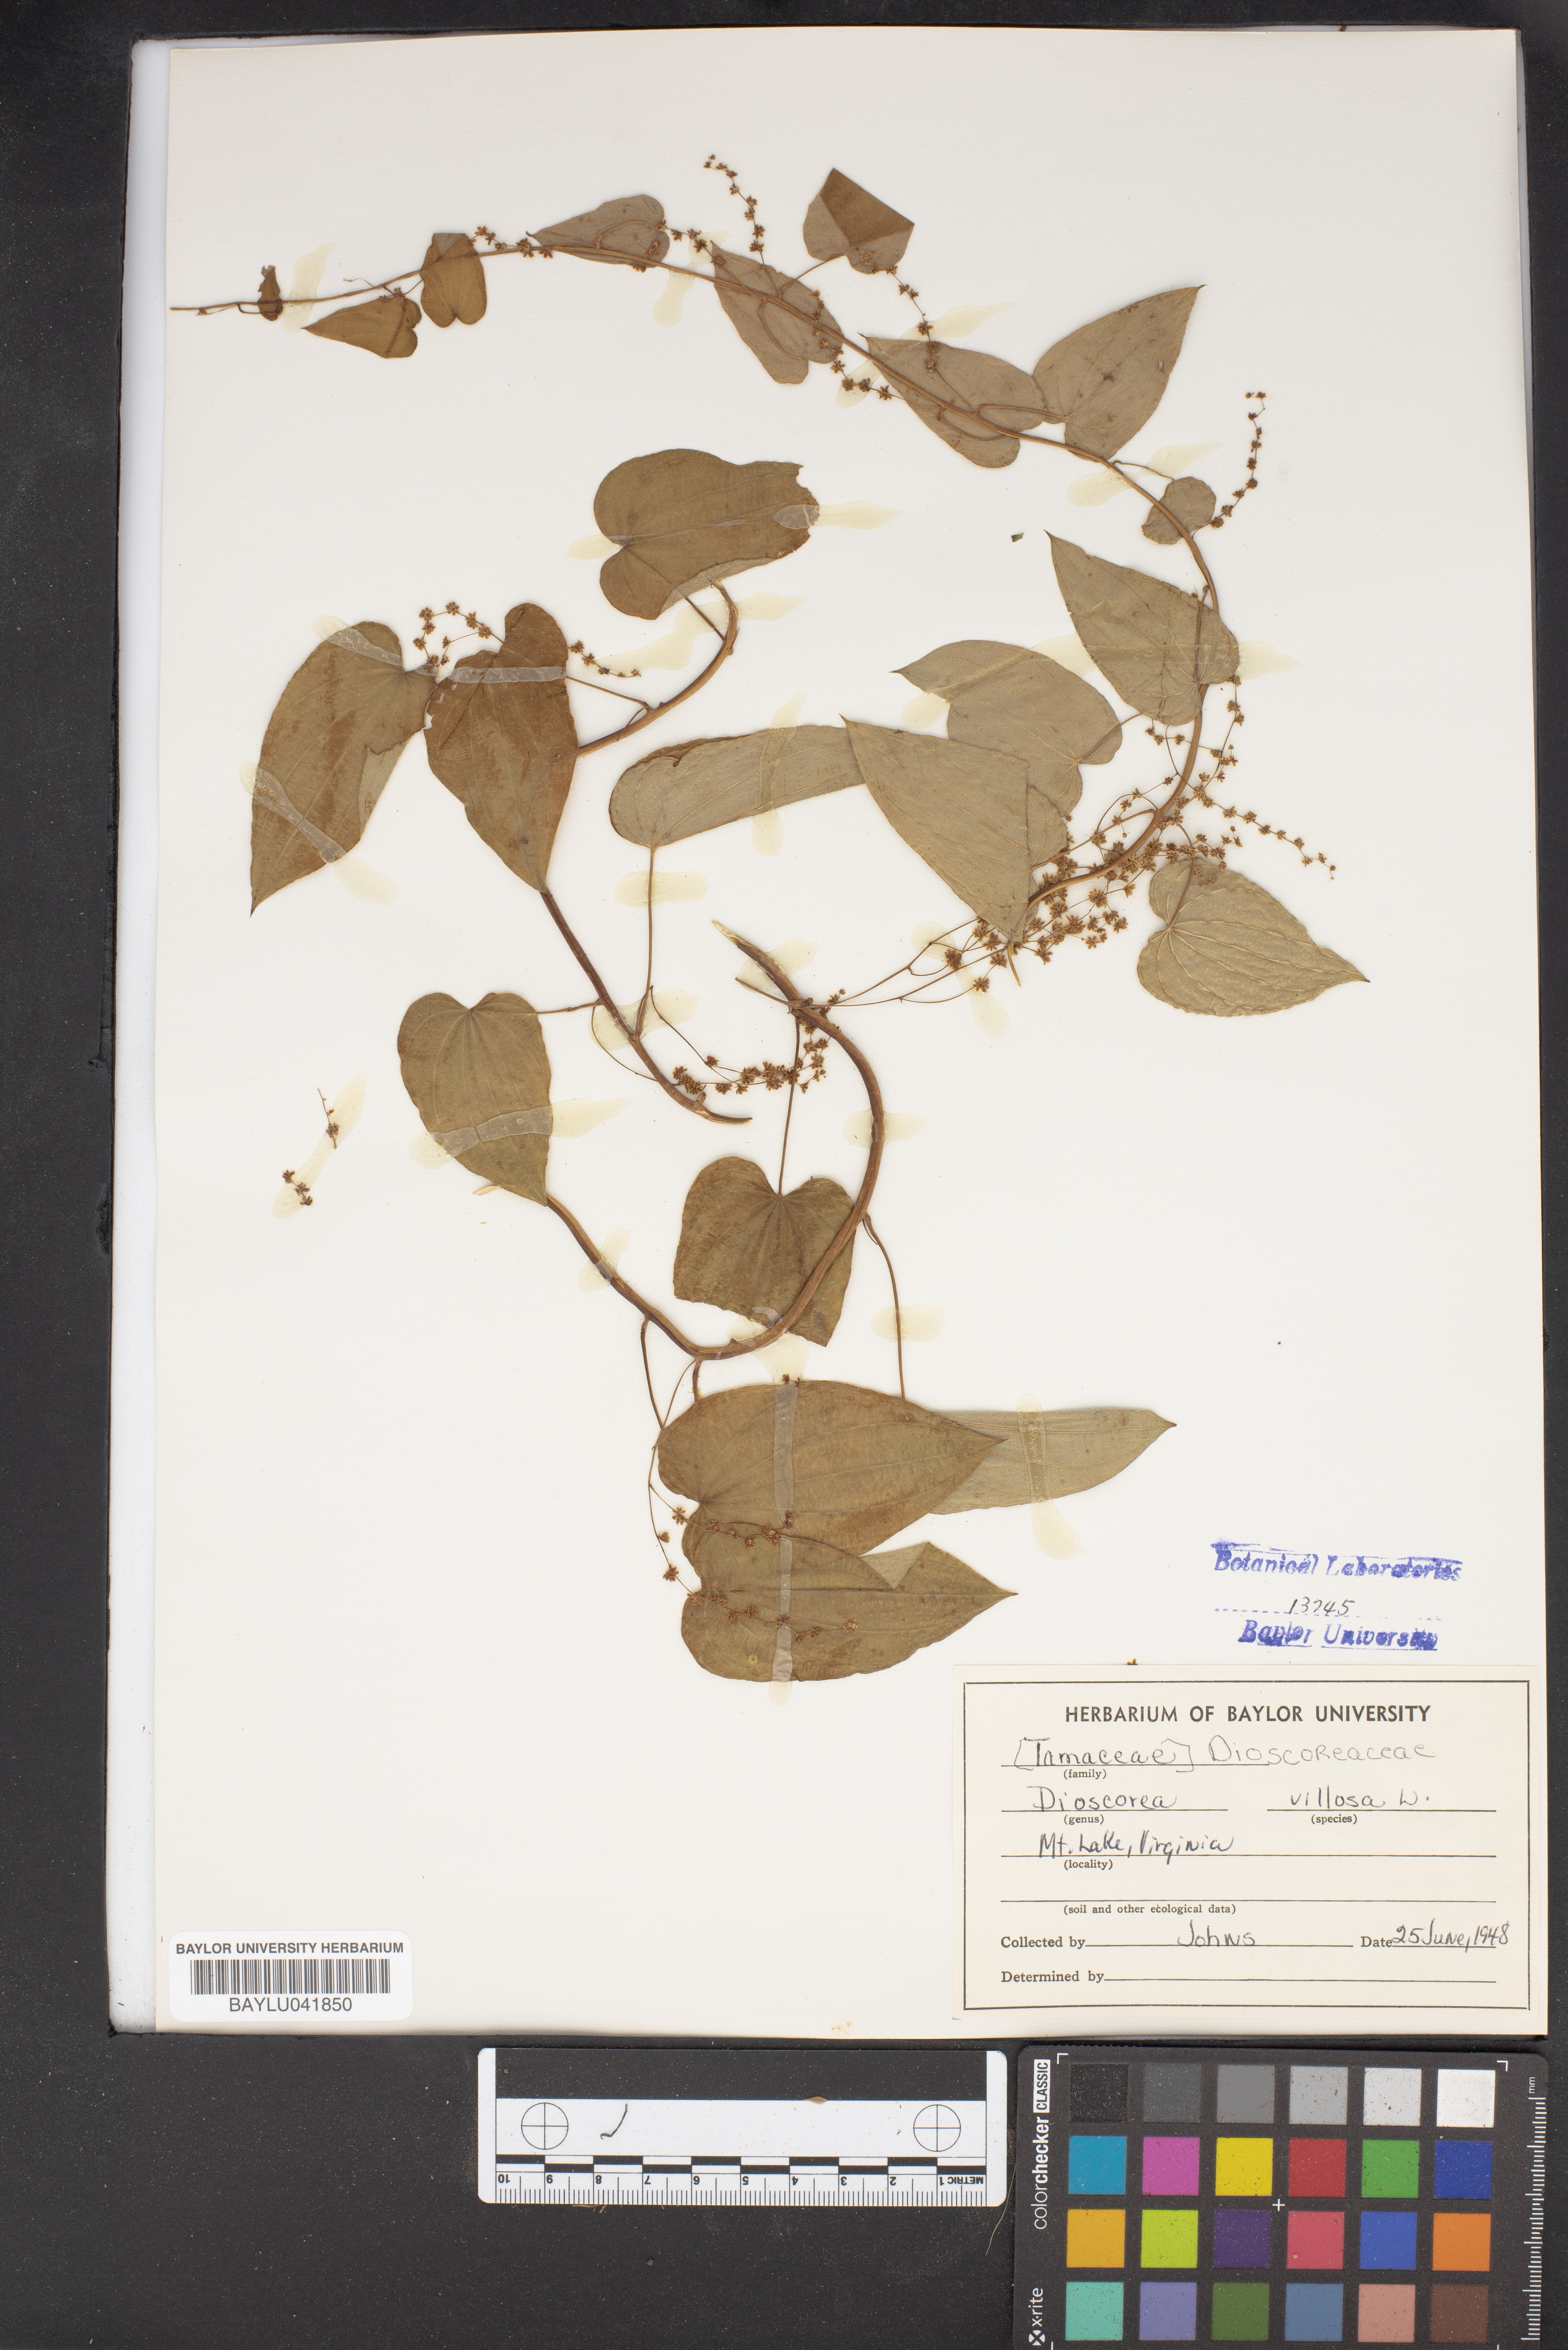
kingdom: Plantae
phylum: Tracheophyta
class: Liliopsida
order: Dioscoreales
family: Dioscoreaceae
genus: Dioscorea
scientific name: Dioscorea villosa
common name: Wild yam
